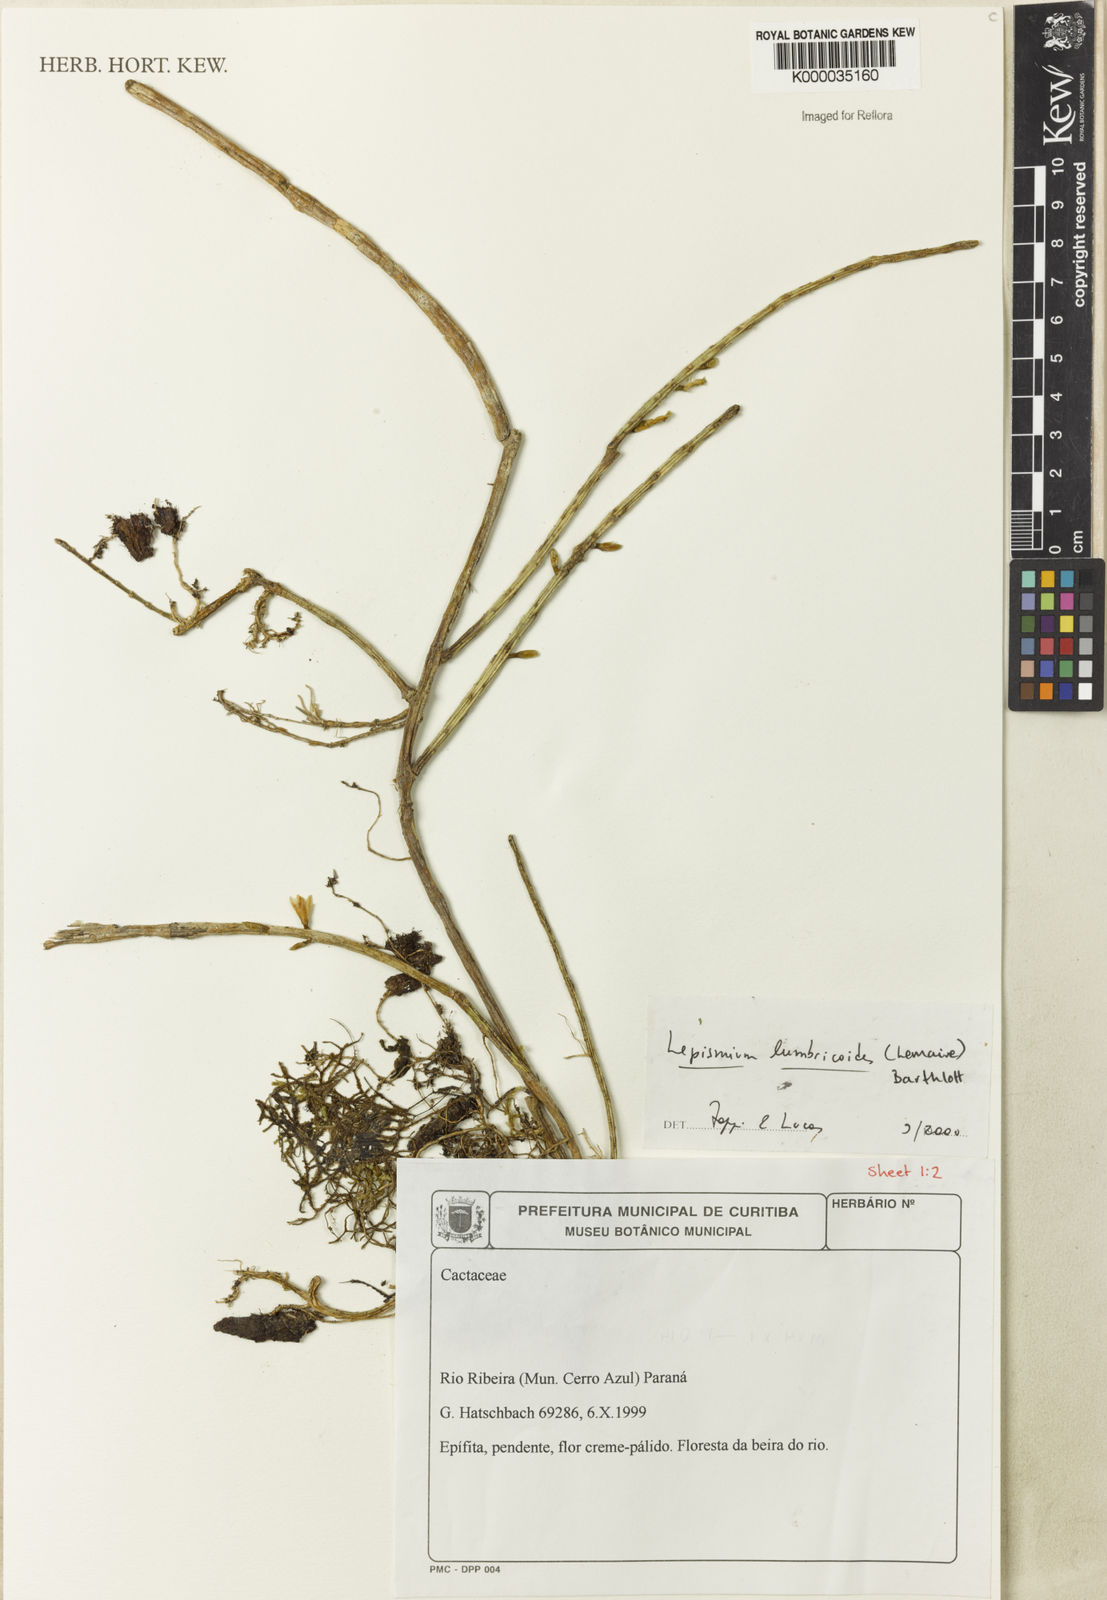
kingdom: Plantae
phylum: Tracheophyta
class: Magnoliopsida
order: Caryophyllales
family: Cactaceae
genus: Lepismium
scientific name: Lepismium lumbricoides
